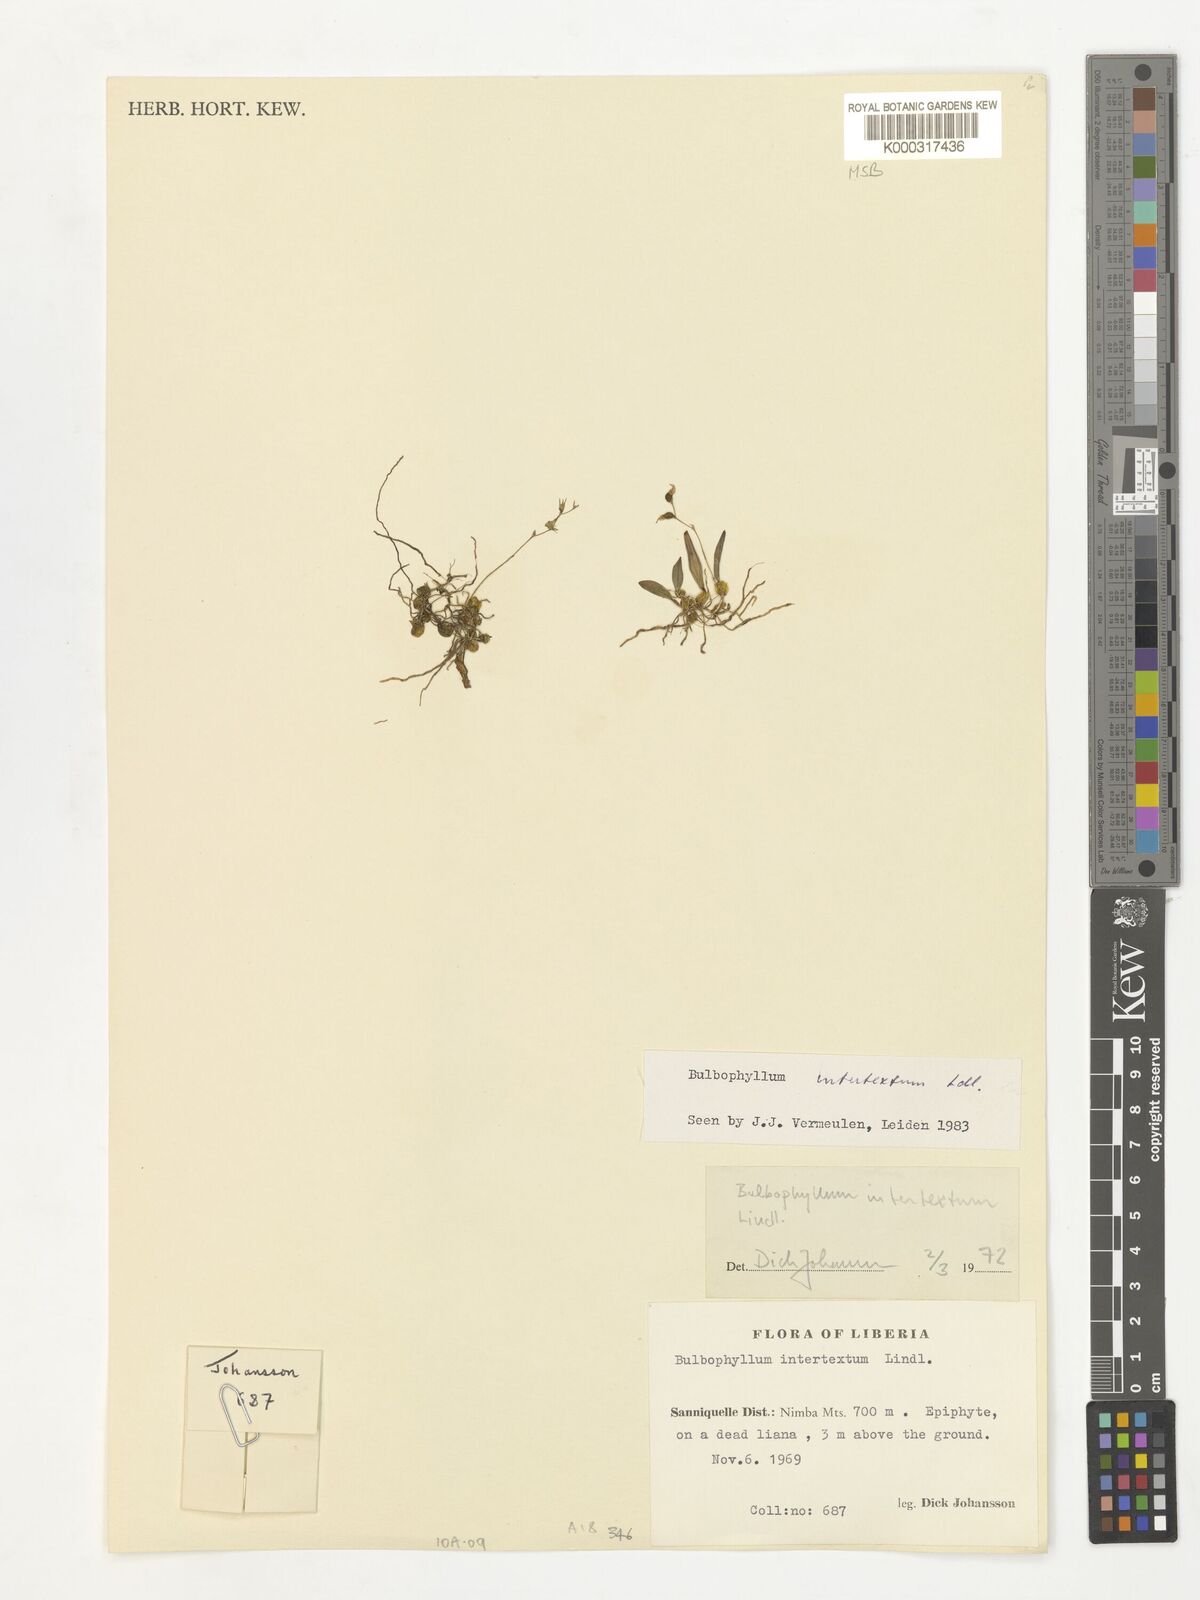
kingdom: Plantae
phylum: Tracheophyta
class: Liliopsida
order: Asparagales
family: Orchidaceae
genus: Bulbophyllum
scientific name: Bulbophyllum intertextum
